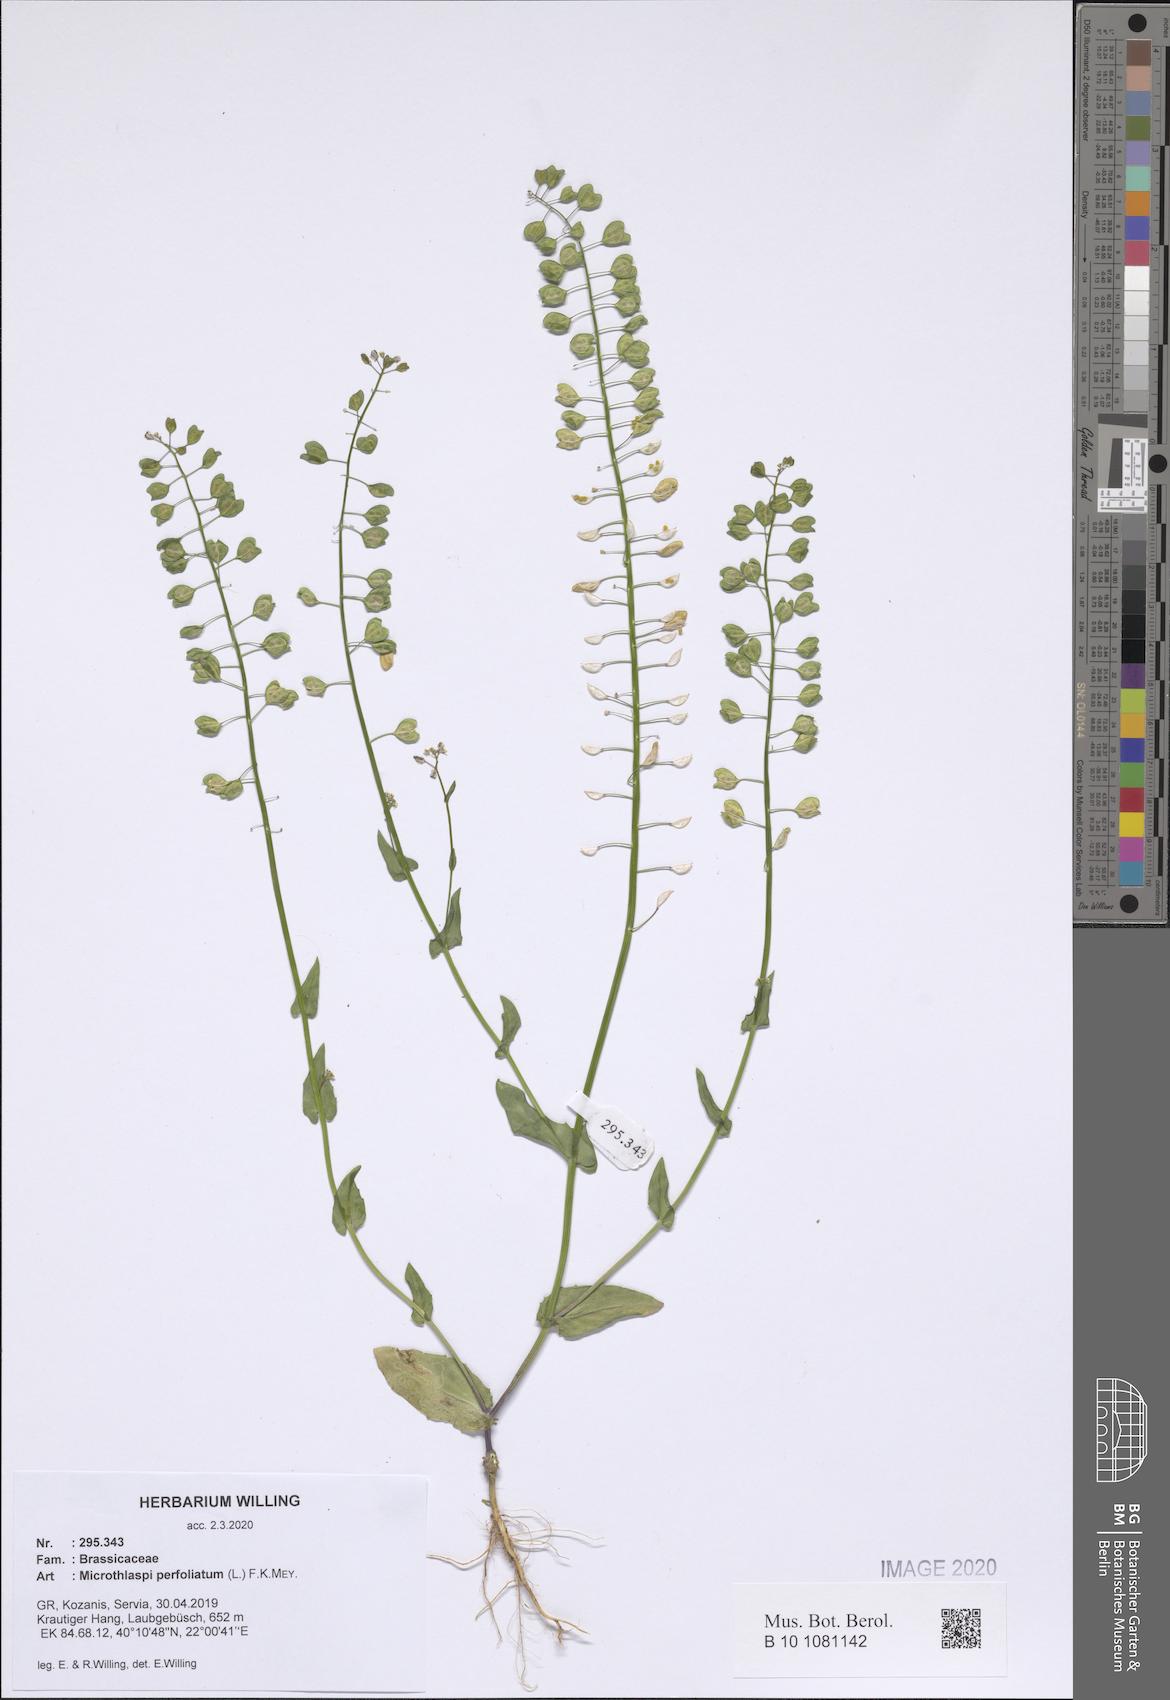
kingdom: Plantae
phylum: Tracheophyta
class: Magnoliopsida
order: Brassicales
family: Brassicaceae
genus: Noccaea
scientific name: Noccaea perfoliata
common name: Perfoliate pennycress
